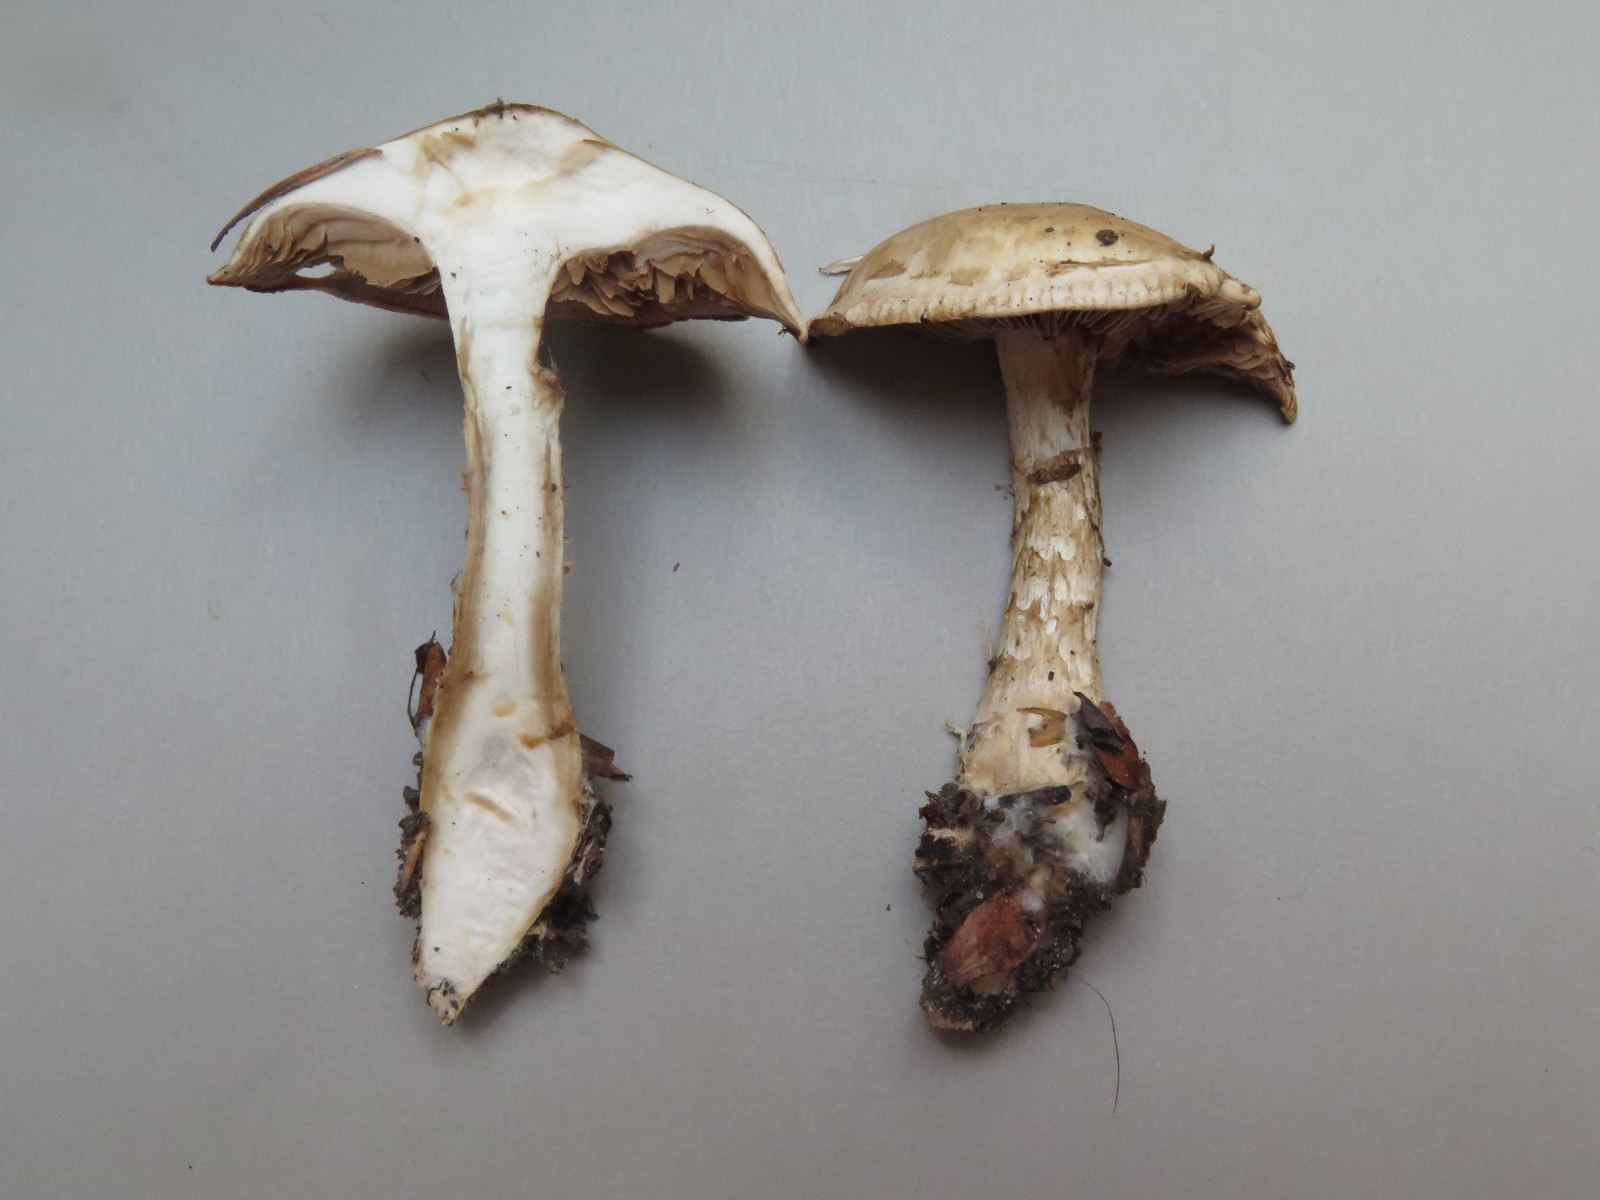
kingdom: Fungi
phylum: Basidiomycota
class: Agaricomycetes
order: Agaricales
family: Hymenogastraceae
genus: Hebeloma
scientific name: Hebeloma radicosum
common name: pælerods-tåreblad
